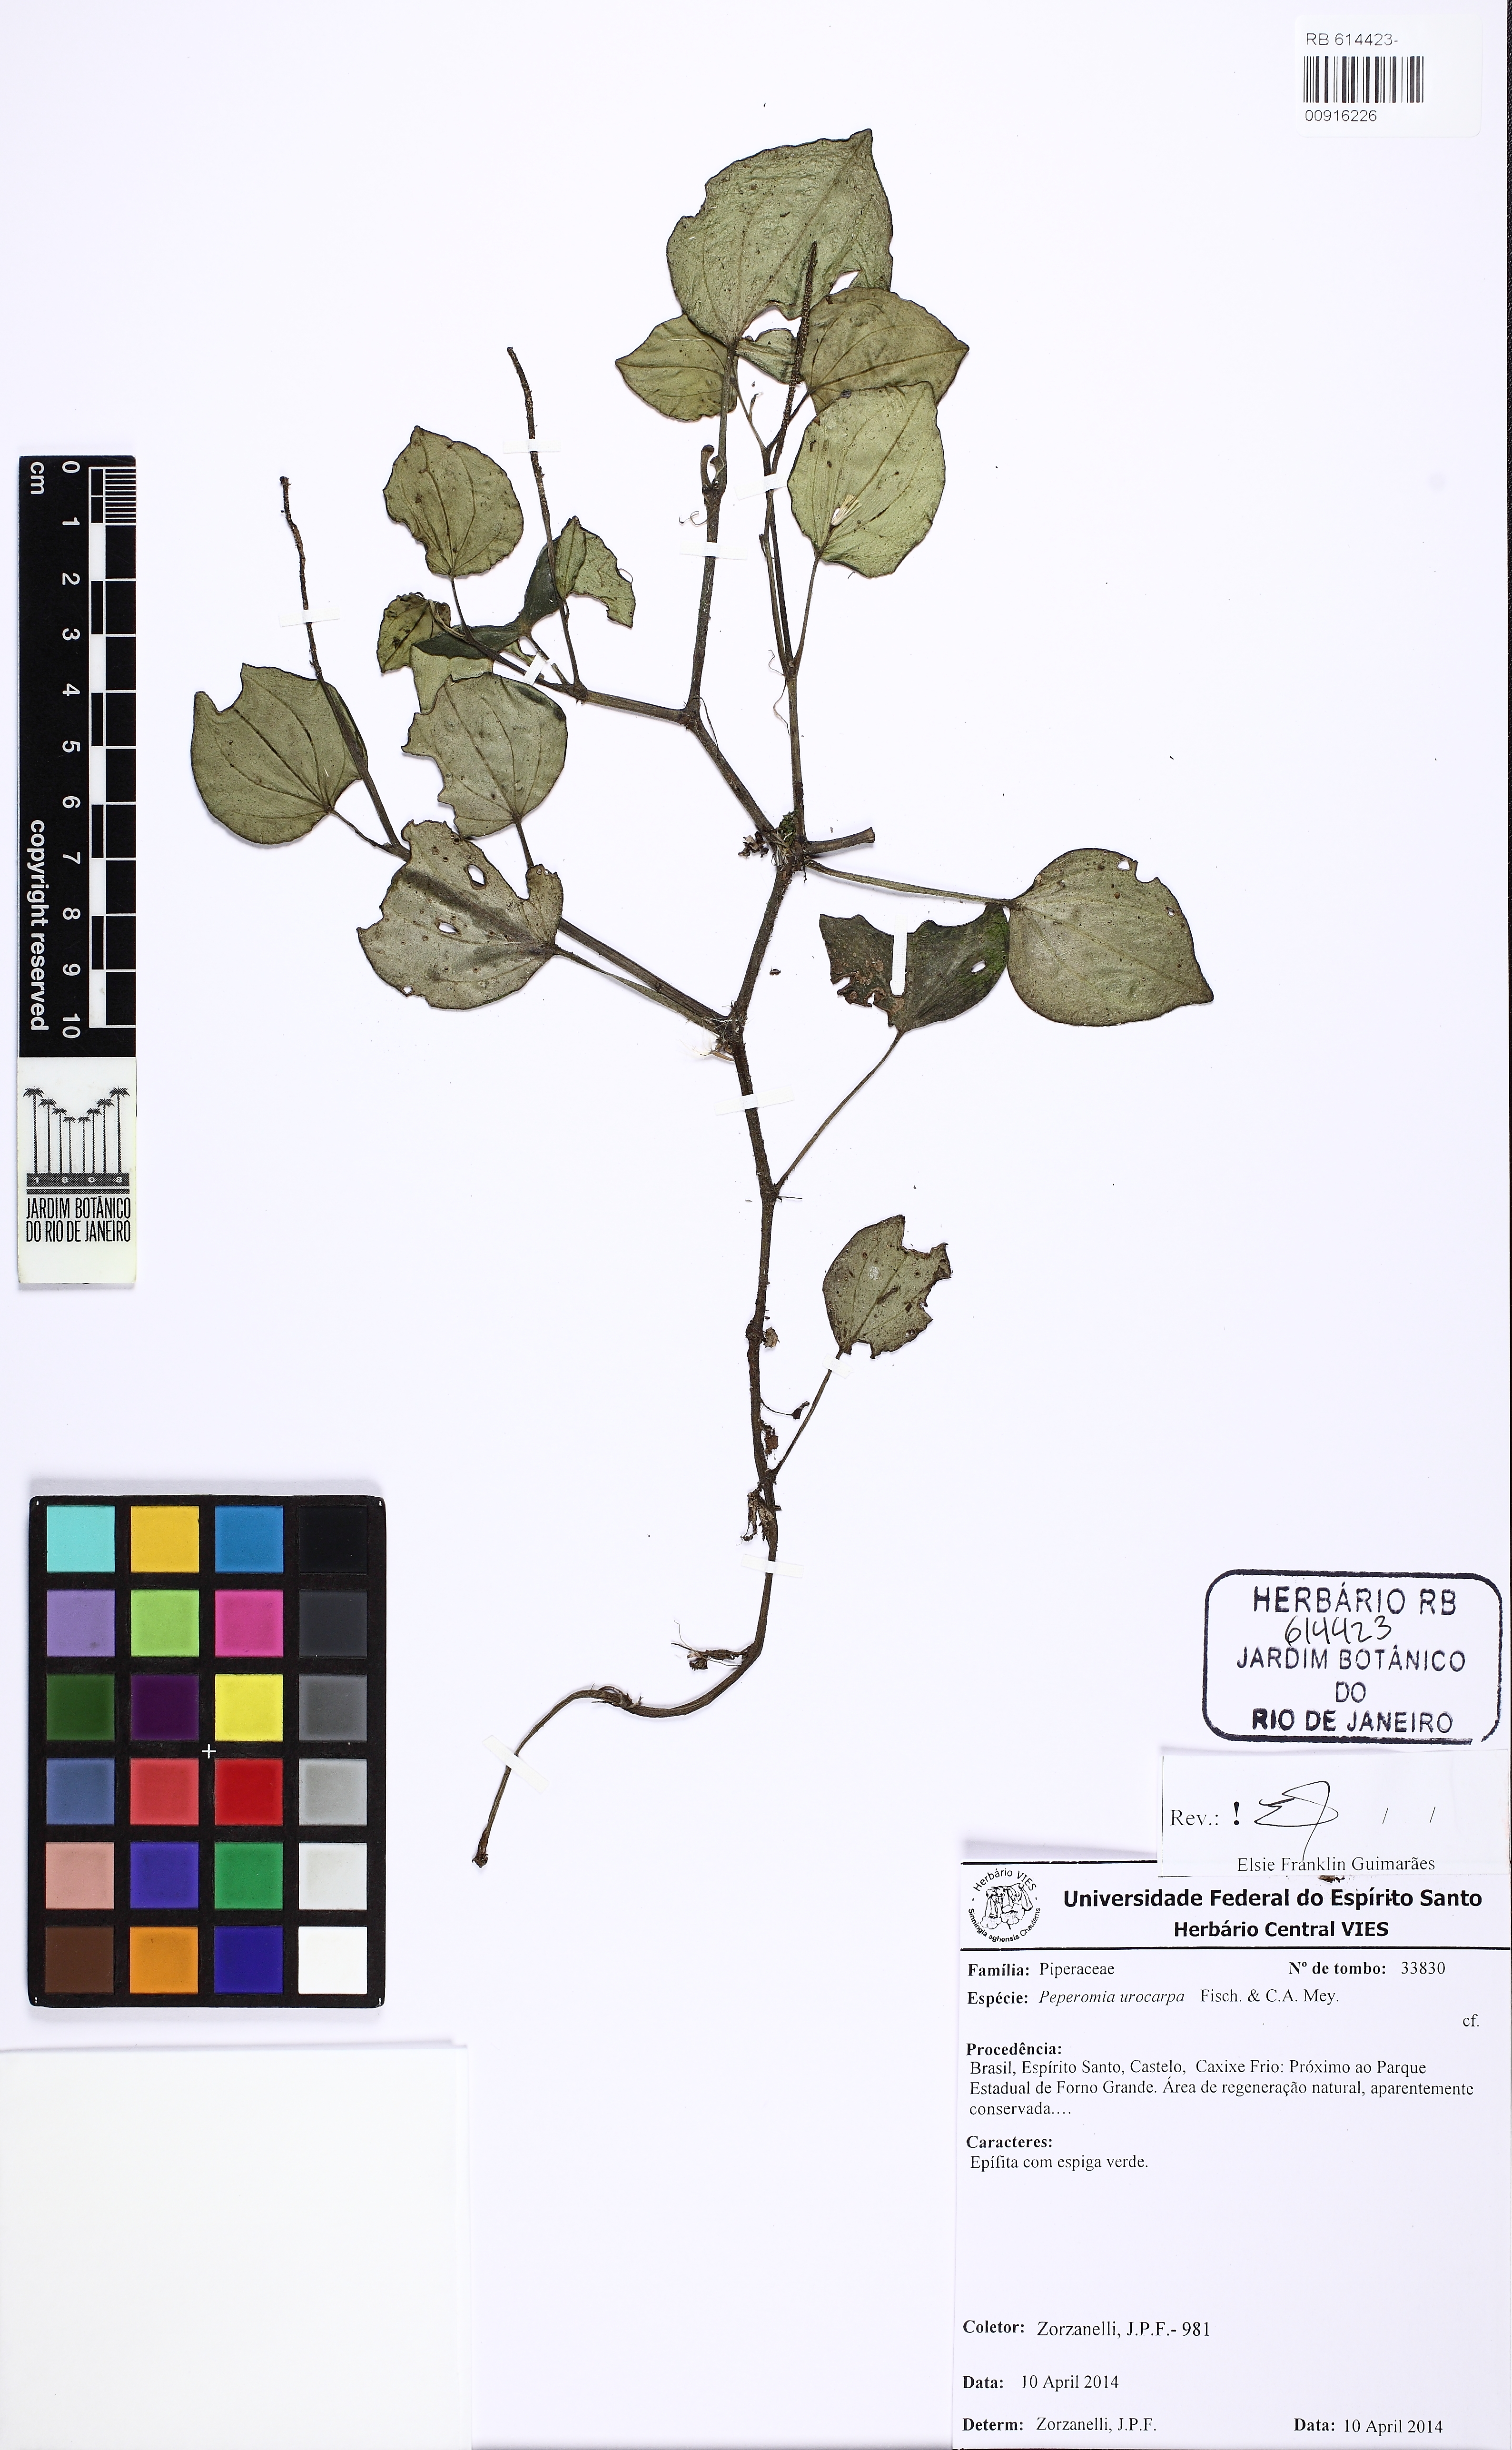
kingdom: Plantae
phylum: Tracheophyta
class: Magnoliopsida
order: Piperales
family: Piperaceae
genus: Peperomia
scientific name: Peperomia urocarpa
